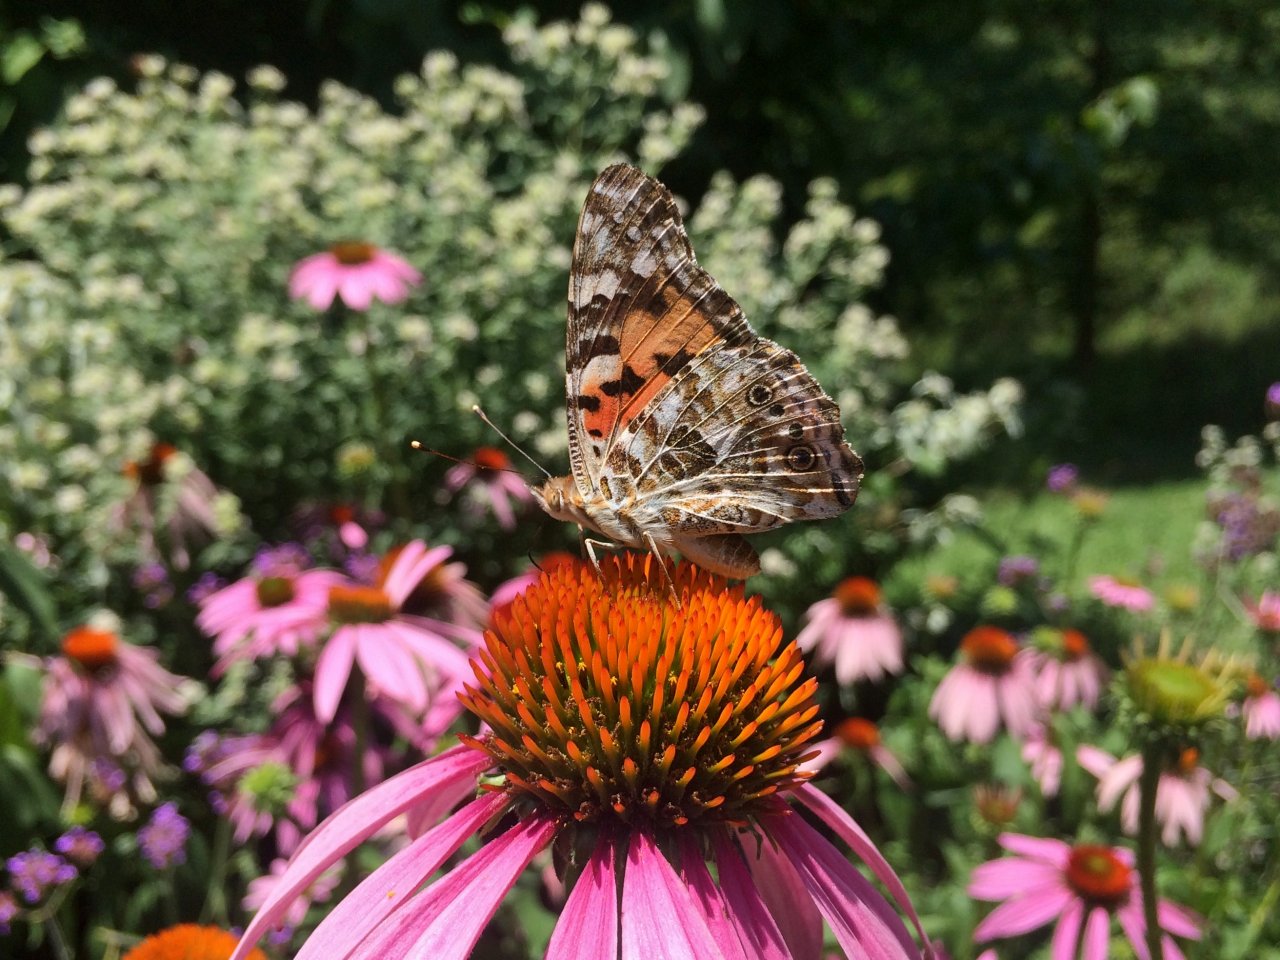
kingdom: Animalia
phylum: Arthropoda
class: Insecta
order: Lepidoptera
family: Nymphalidae
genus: Vanessa
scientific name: Vanessa cardui
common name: Painted Lady
